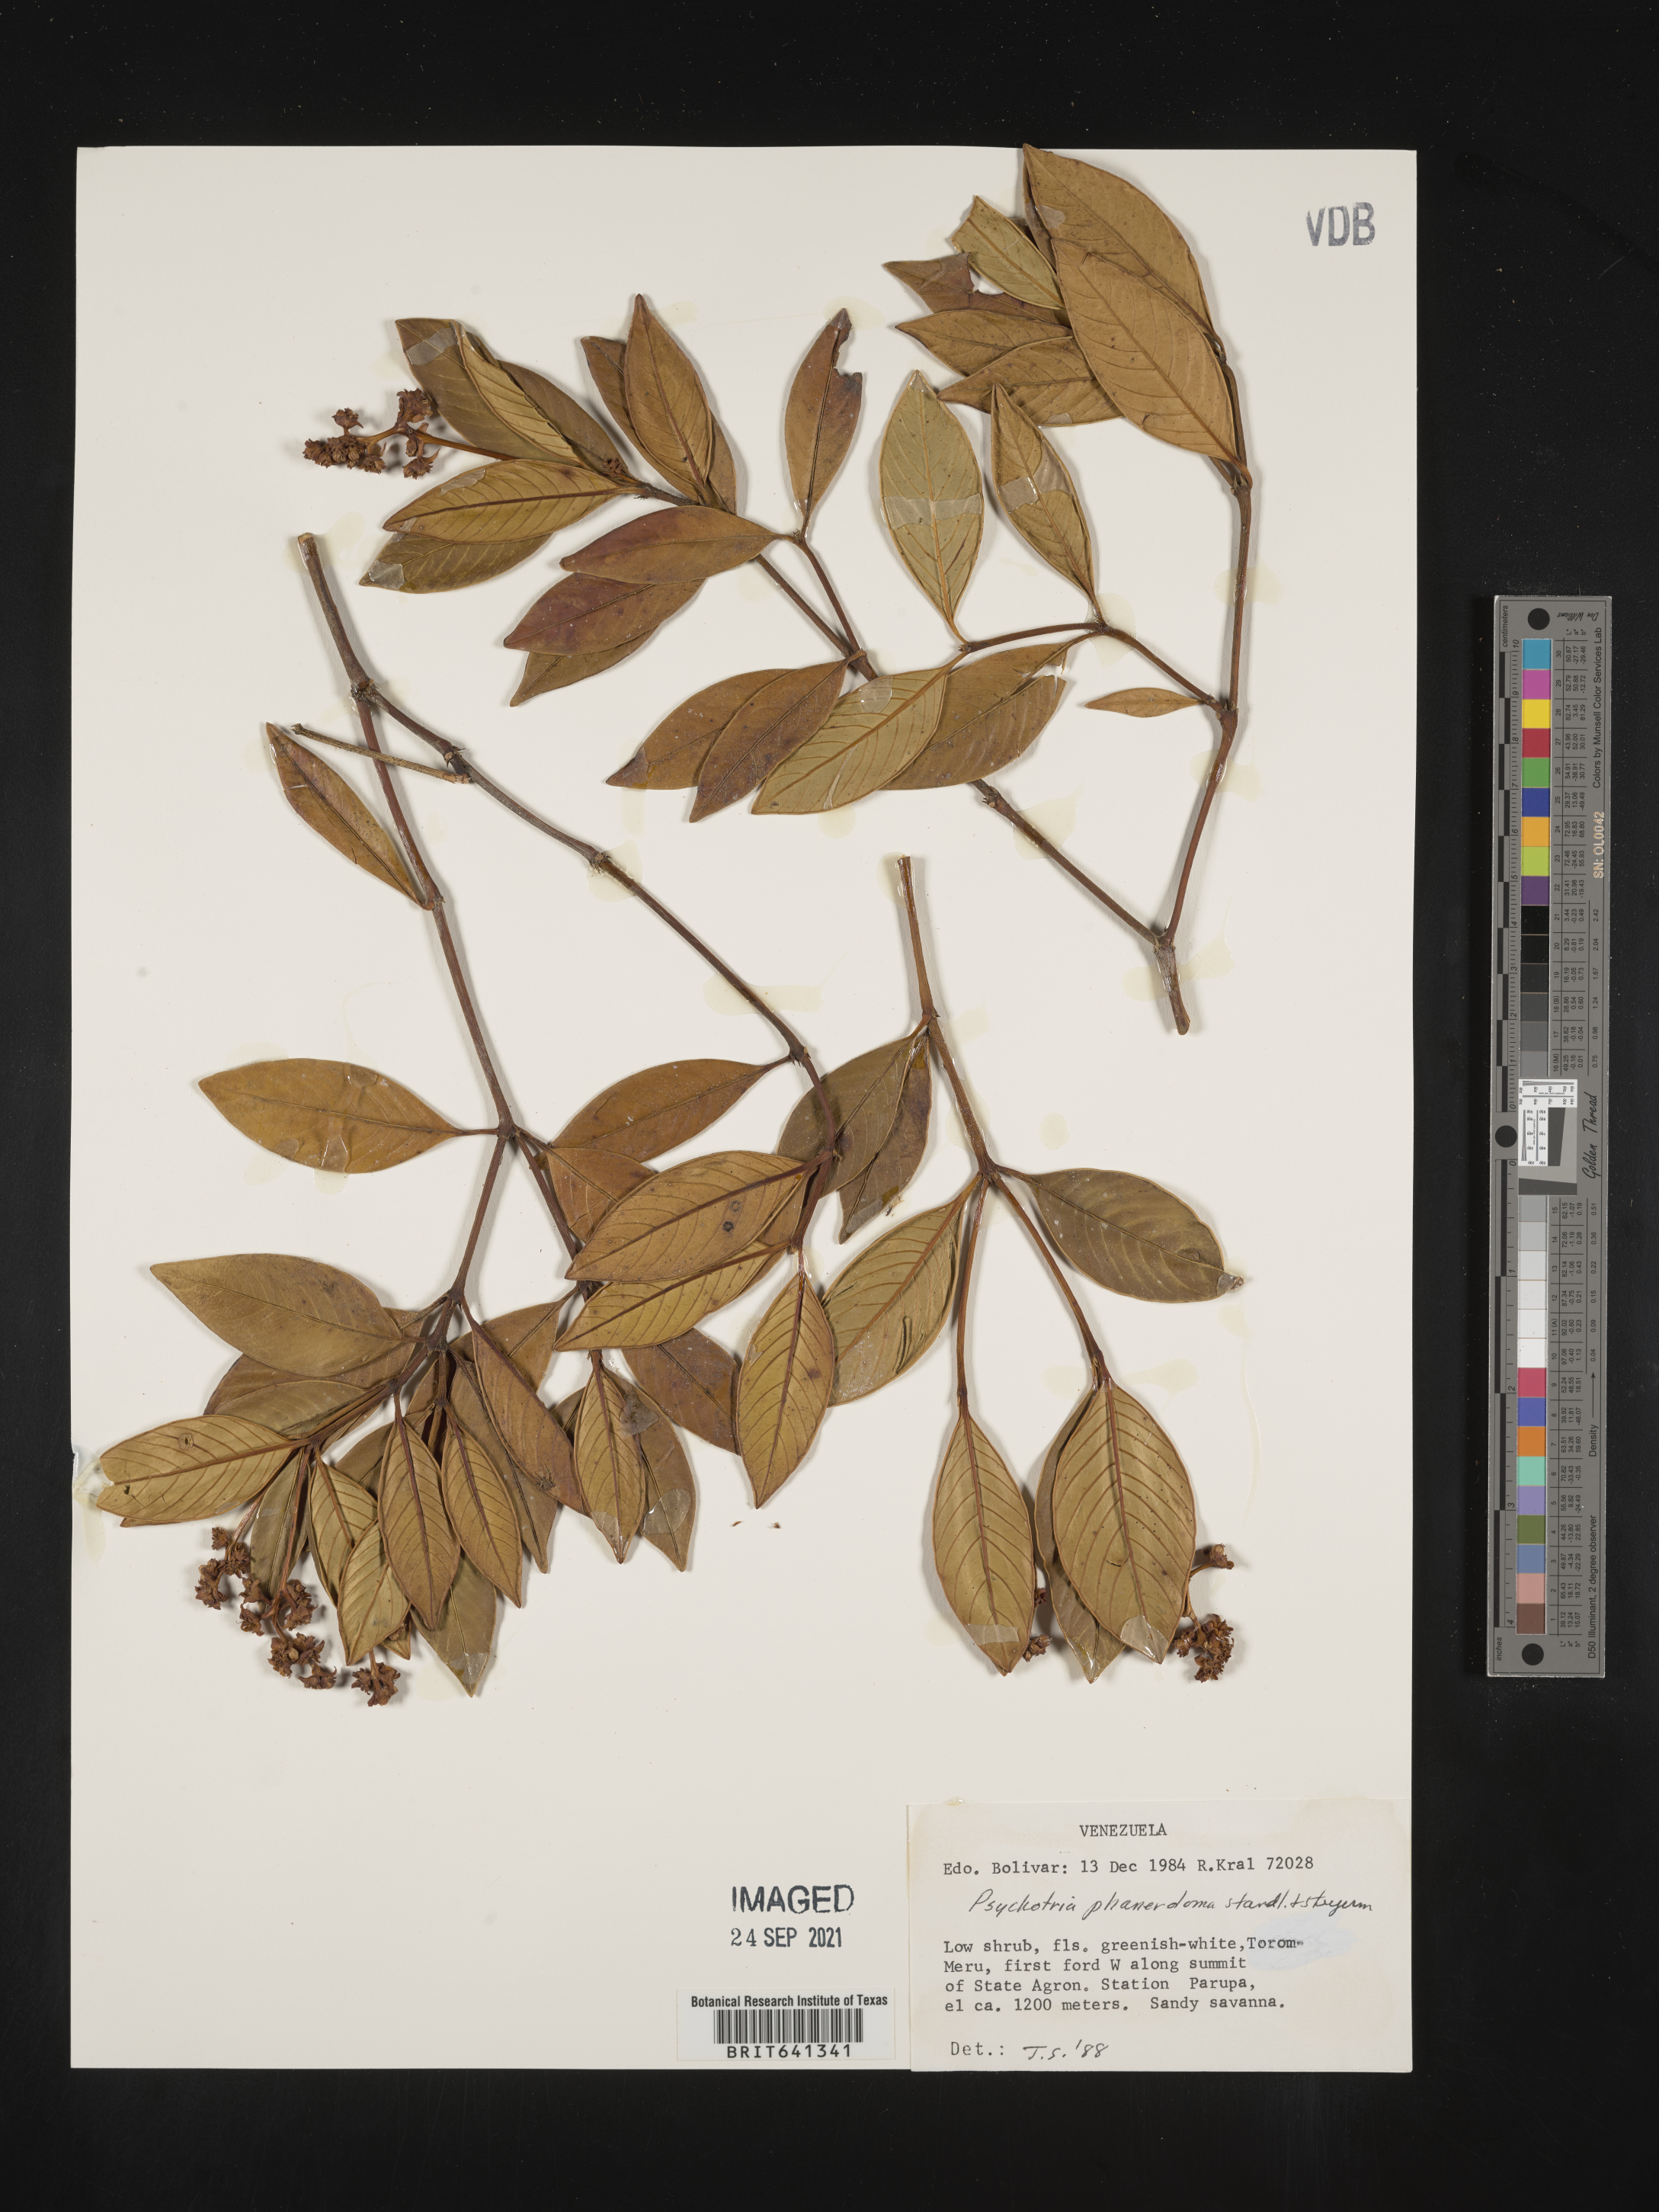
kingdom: Plantae
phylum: Tracheophyta
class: Magnoliopsida
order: Gentianales
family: Rubiaceae
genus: Psychotria
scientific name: Psychotria
